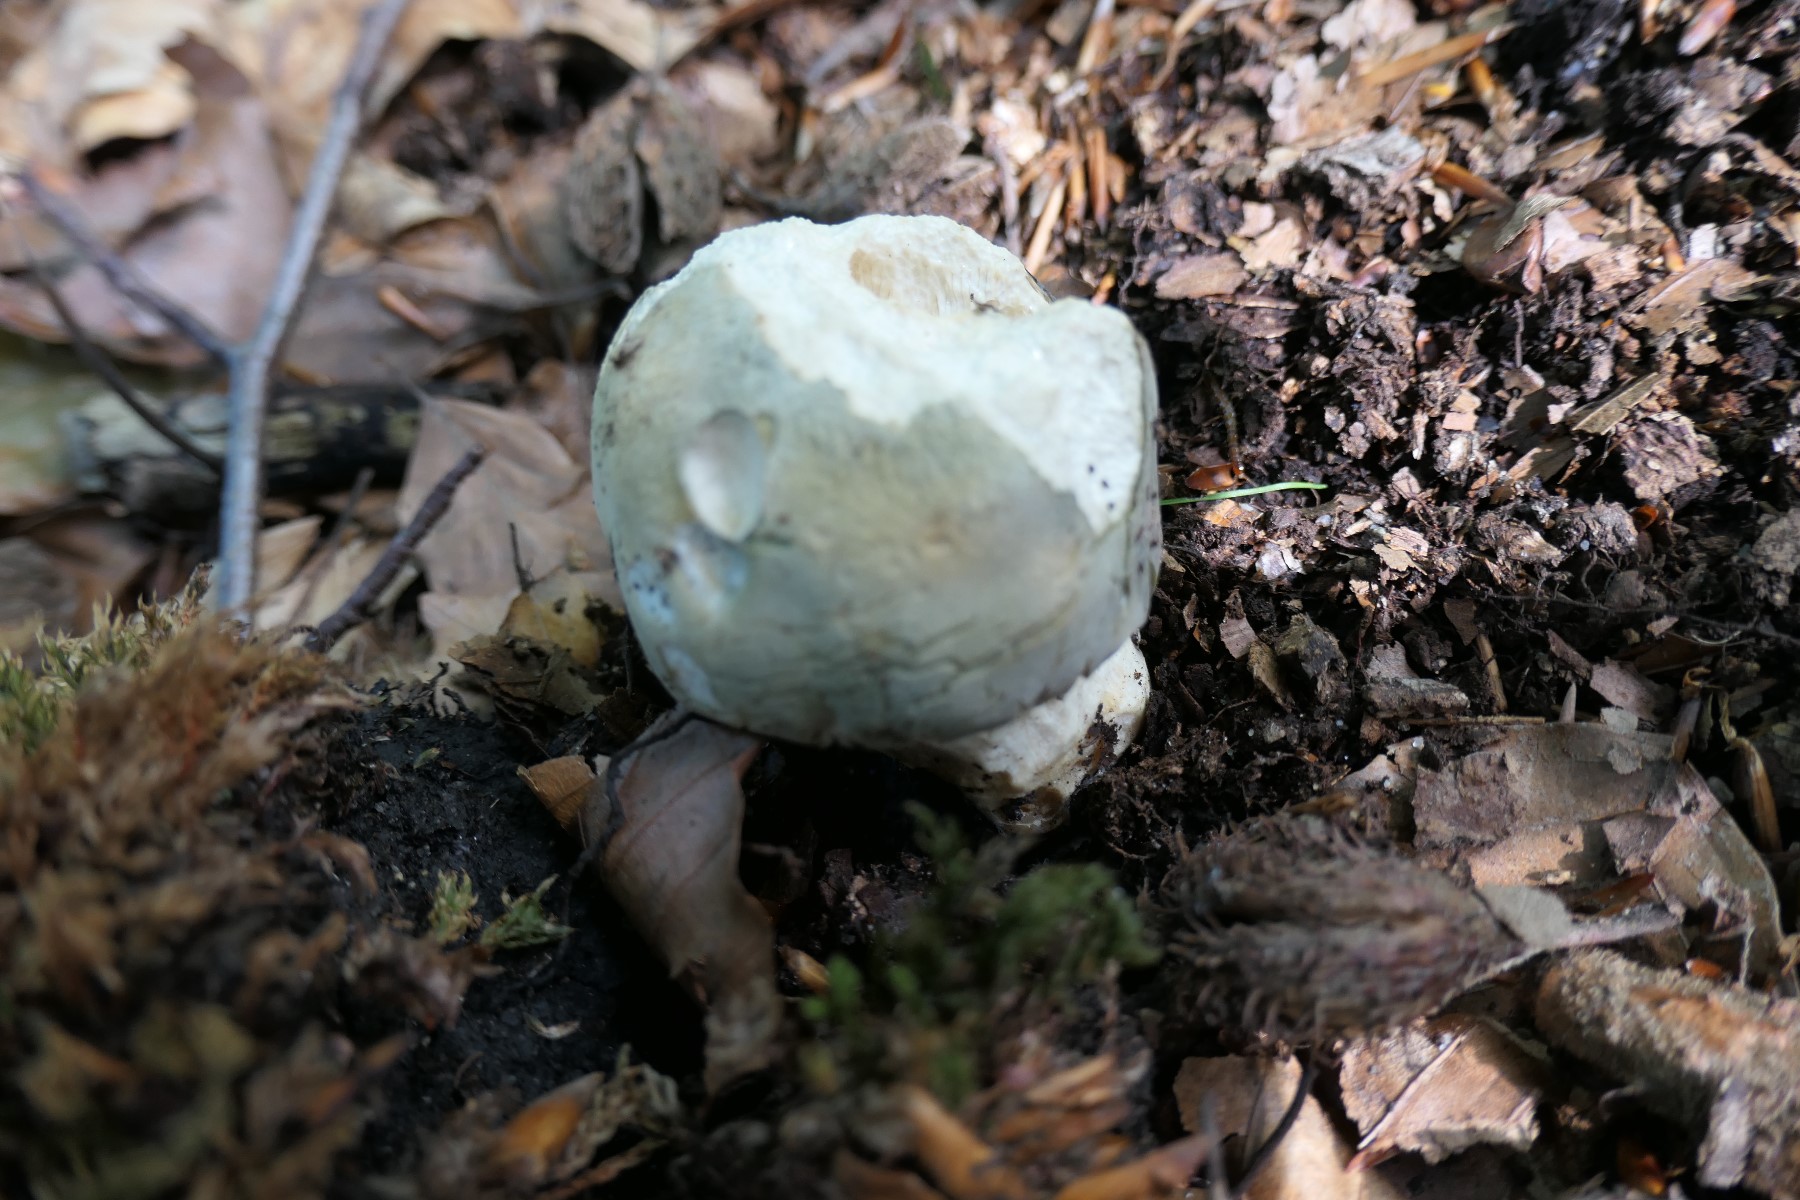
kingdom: Fungi
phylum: Basidiomycota
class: Agaricomycetes
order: Russulales
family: Russulaceae
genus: Russula
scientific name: Russula virescens
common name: spanskgrøn skørhat
